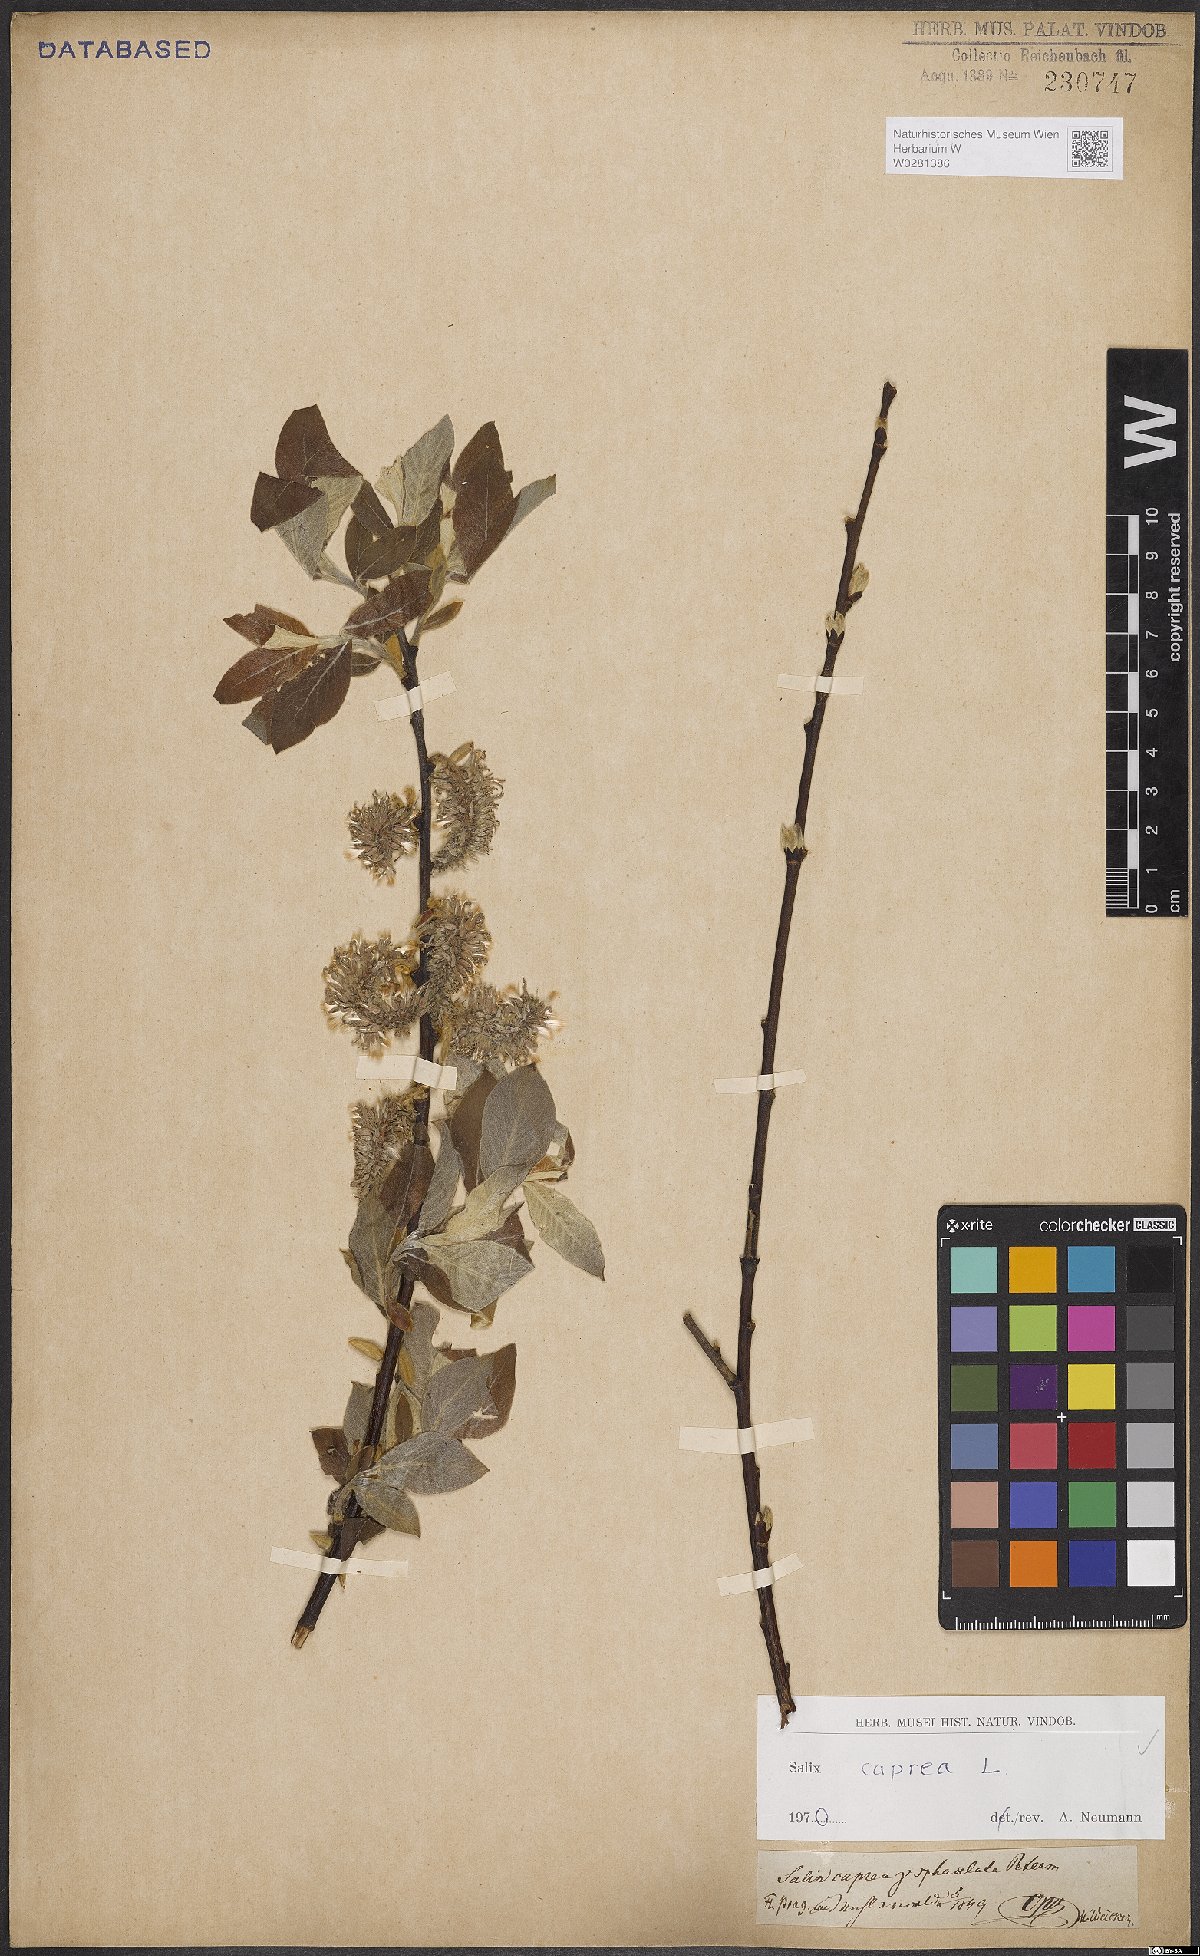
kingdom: Plantae
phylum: Tracheophyta
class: Magnoliopsida
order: Malpighiales
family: Salicaceae
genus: Salix
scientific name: Salix caprea
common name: Goat willow
